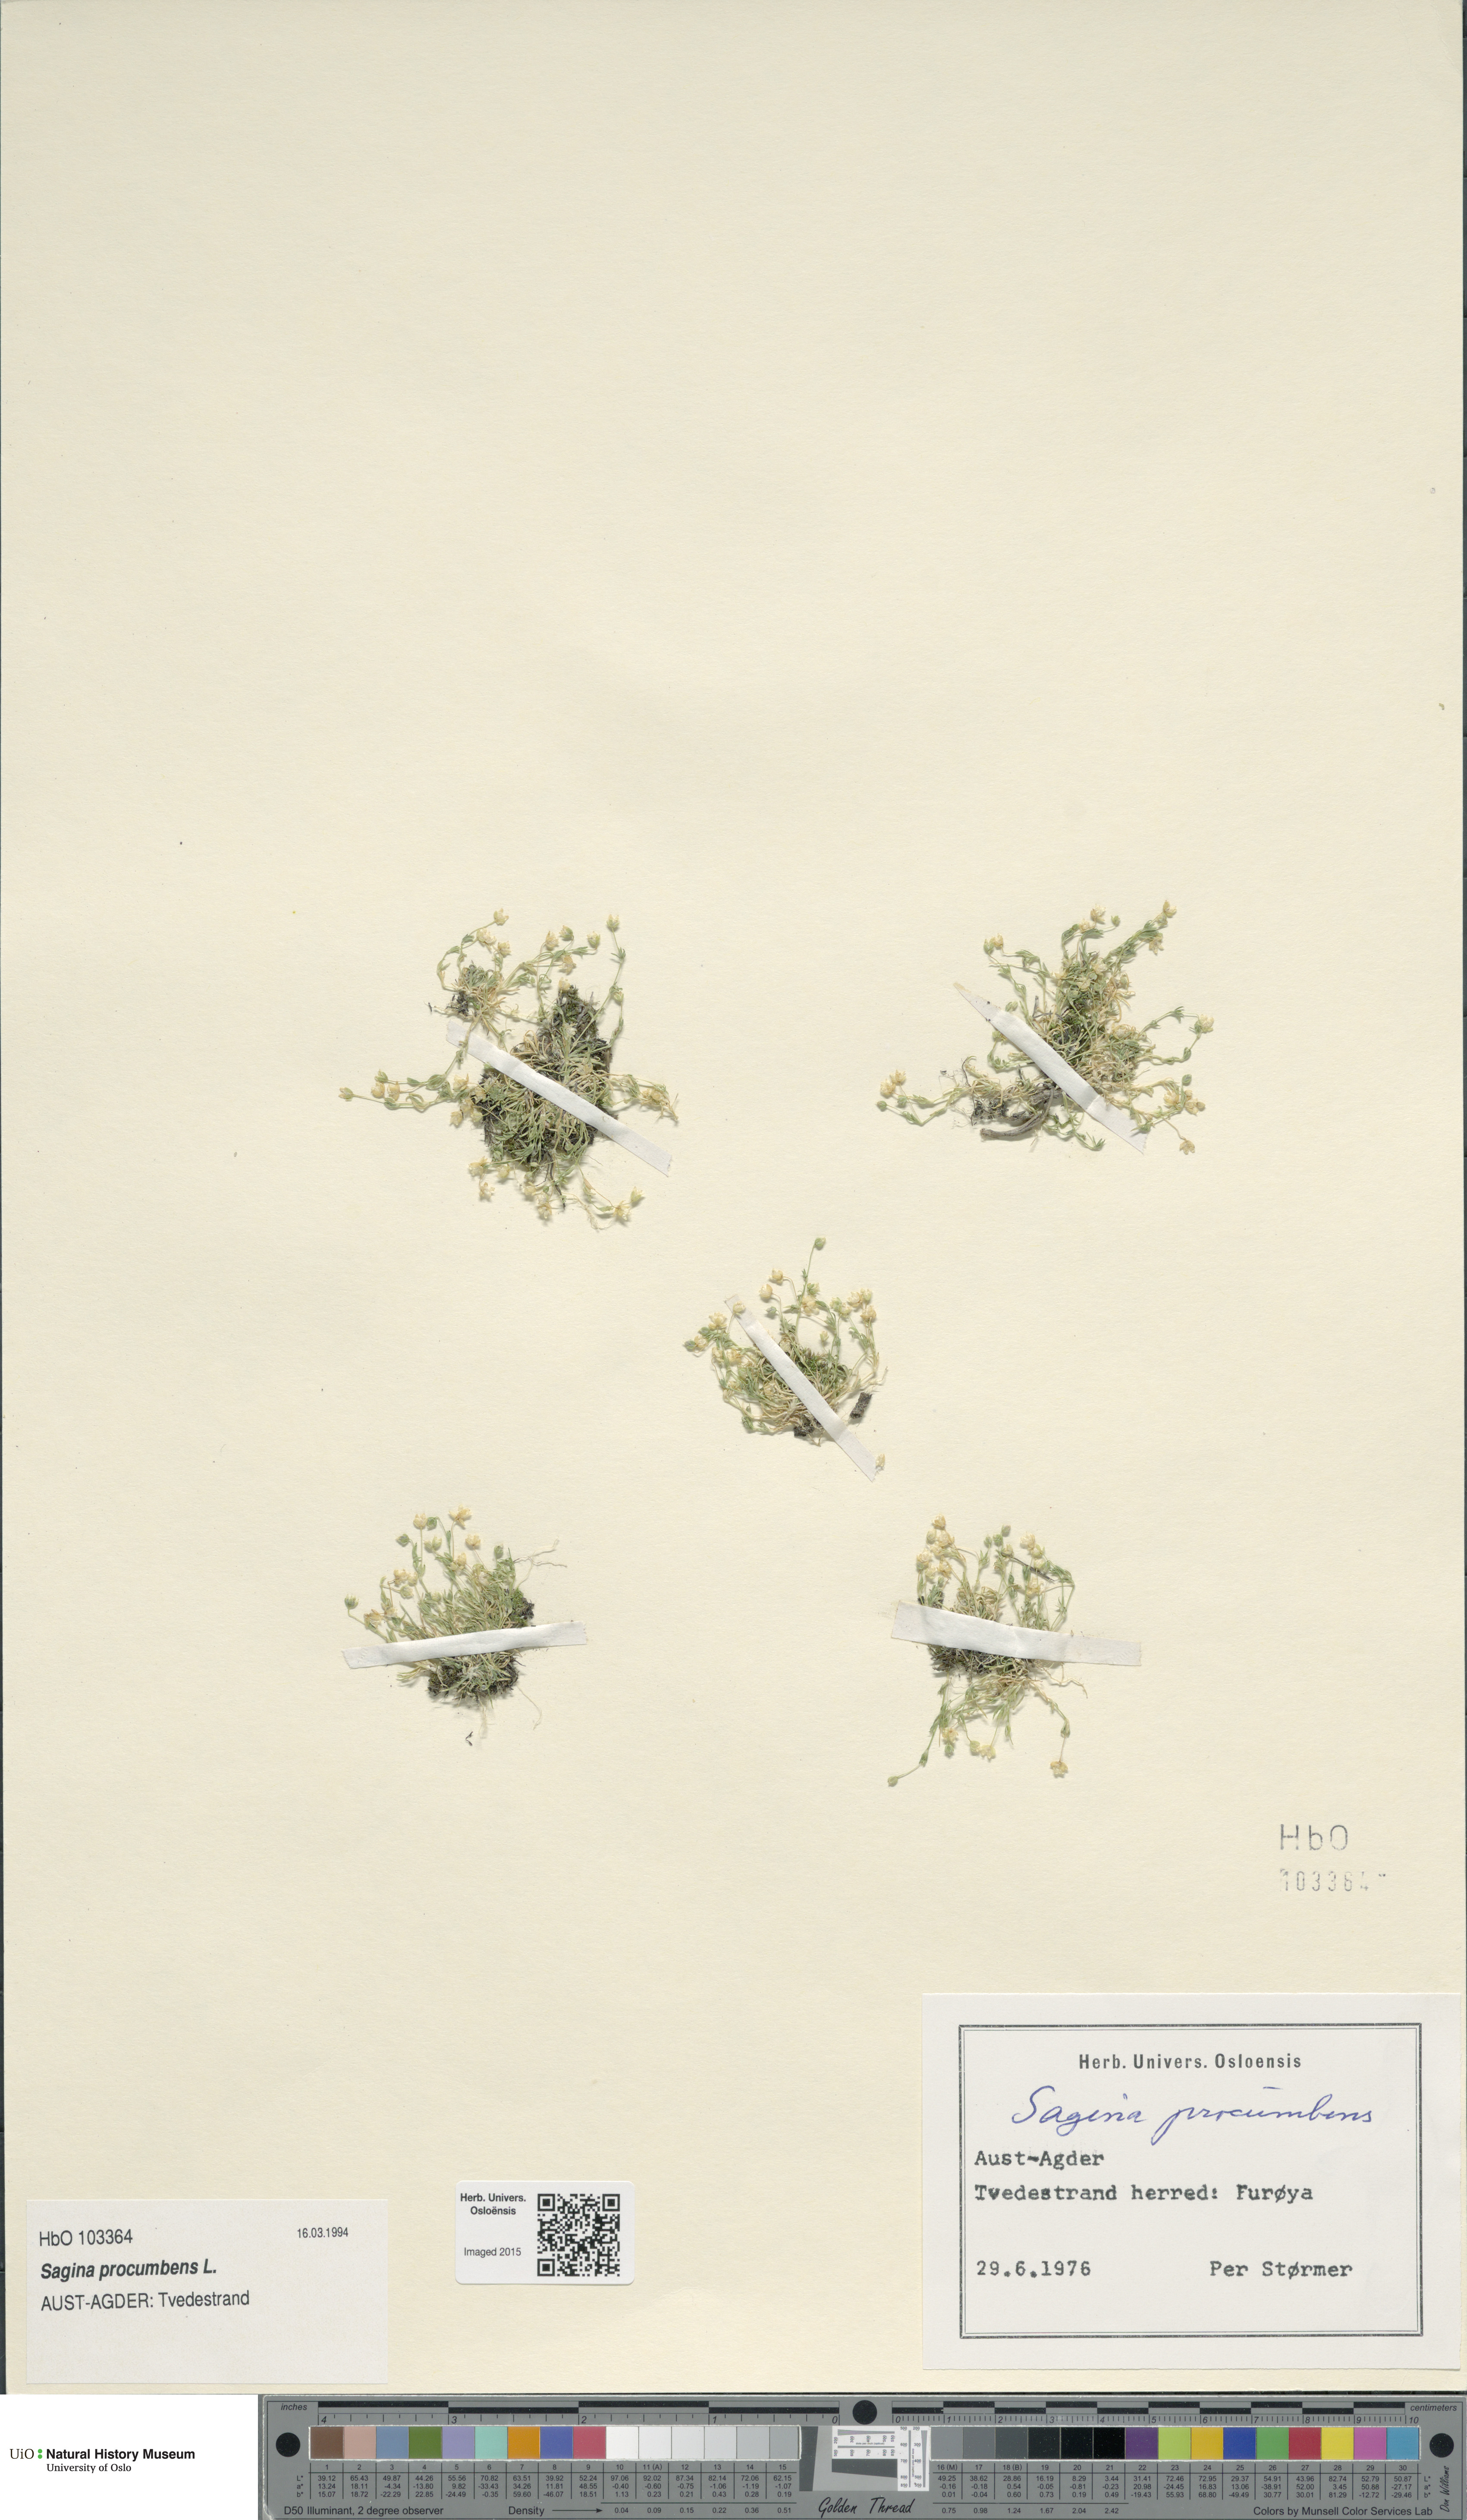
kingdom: Plantae
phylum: Tracheophyta
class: Magnoliopsida
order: Caryophyllales
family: Caryophyllaceae
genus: Sagina
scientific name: Sagina procumbens
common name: Procumbent pearlwort
